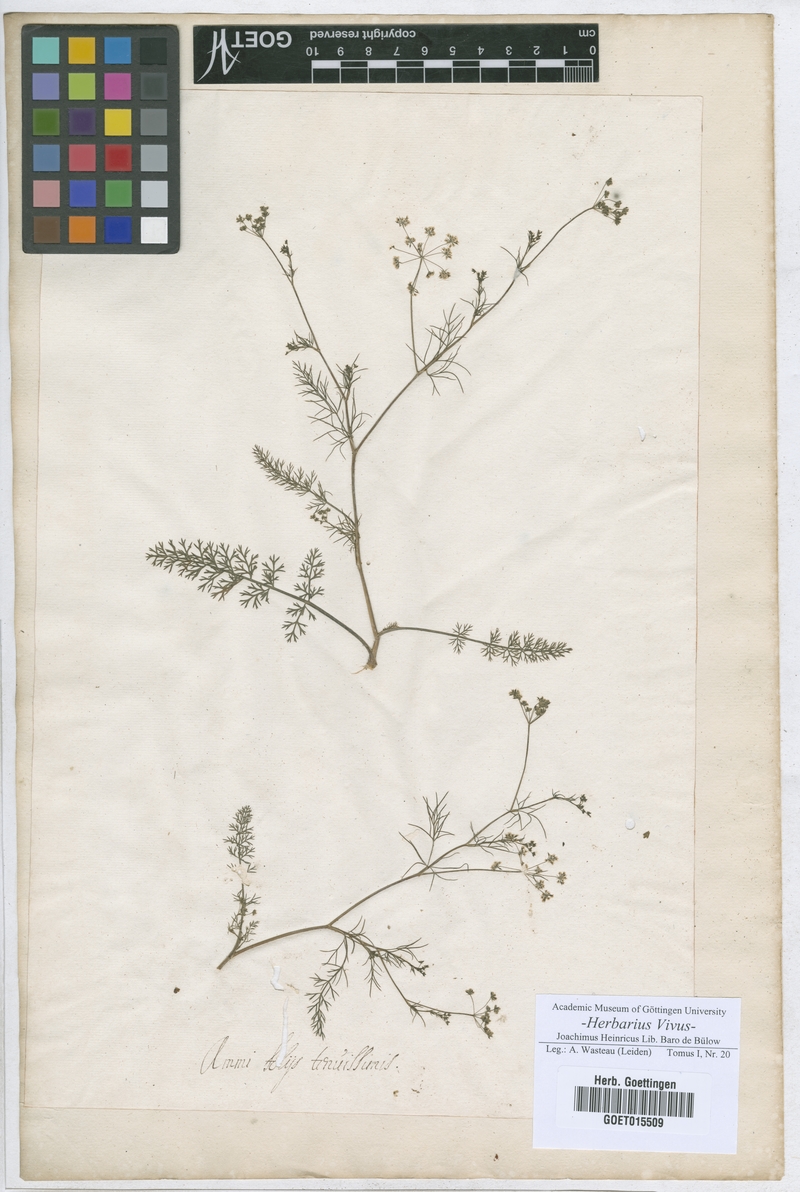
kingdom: Plantae
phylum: Tracheophyta
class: Magnoliopsida
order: Apiales
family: Apiaceae
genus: Anethum
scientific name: Anethum graveolens
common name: Dill
